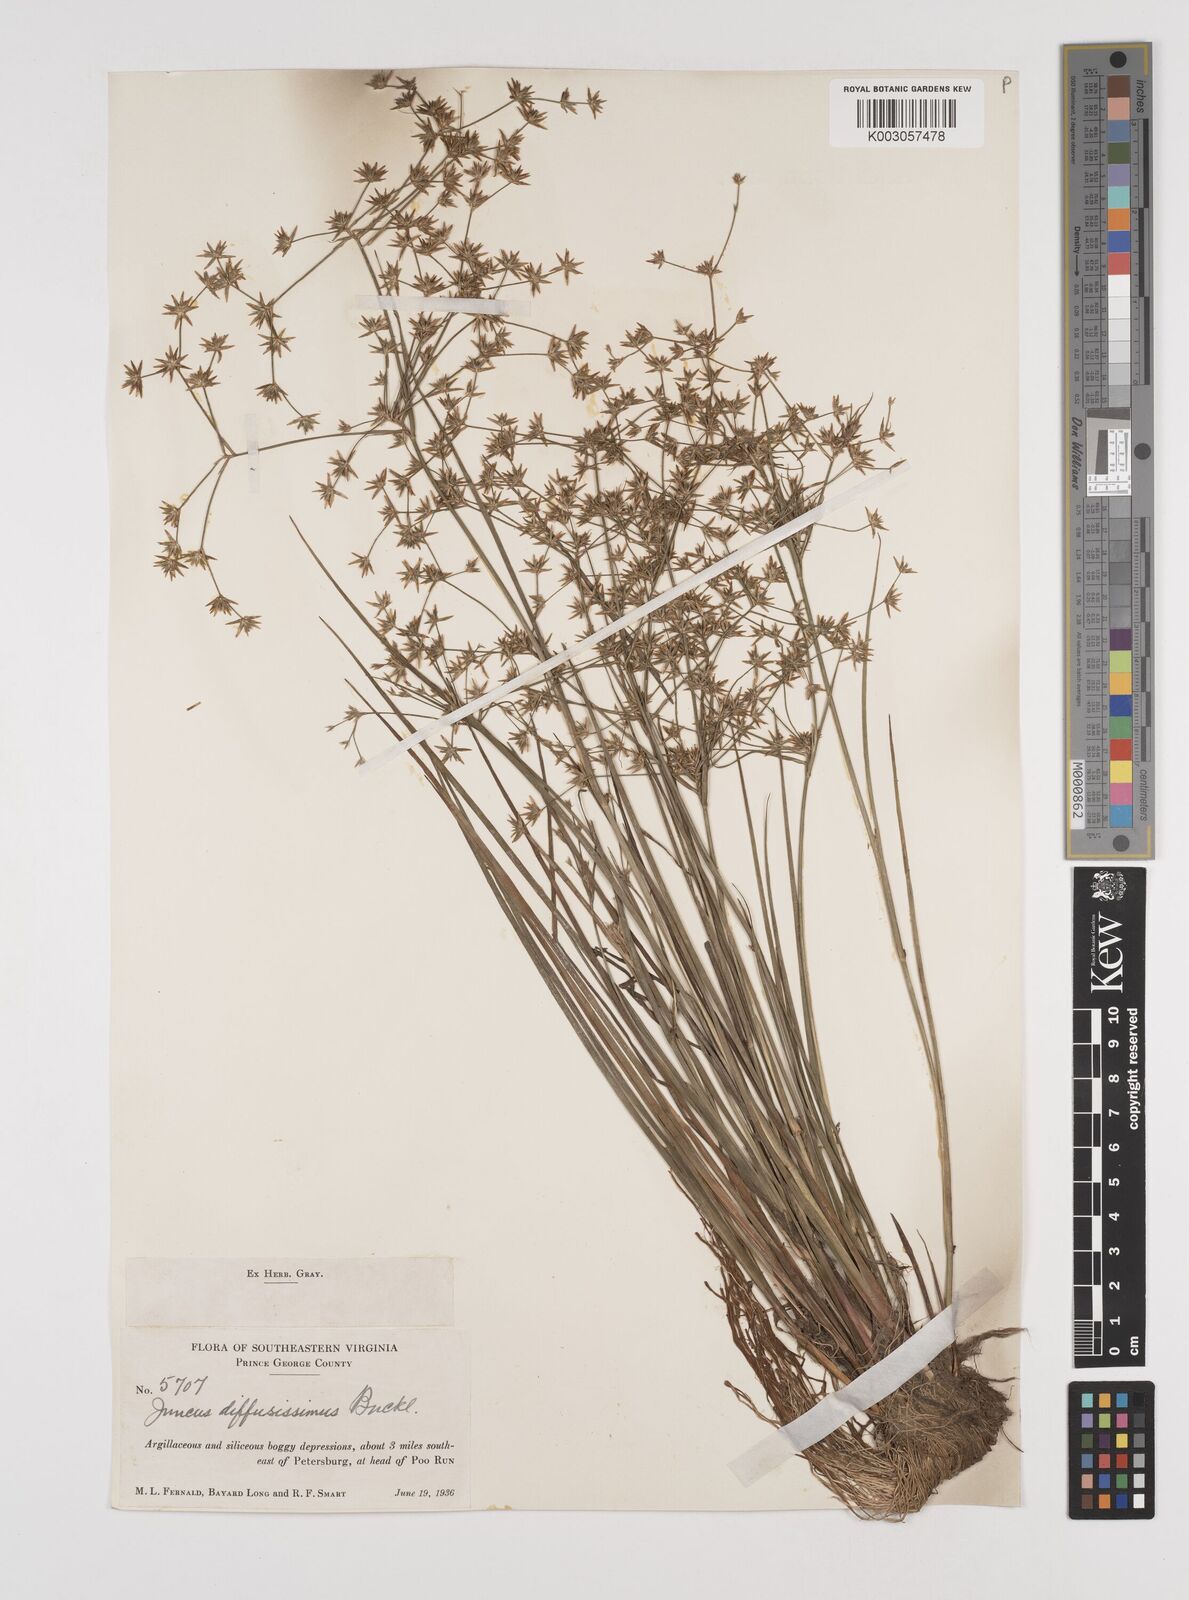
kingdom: Plantae
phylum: Tracheophyta
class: Liliopsida
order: Poales
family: Juncaceae
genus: Juncus
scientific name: Juncus diffusissimus
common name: Slimpod rush
